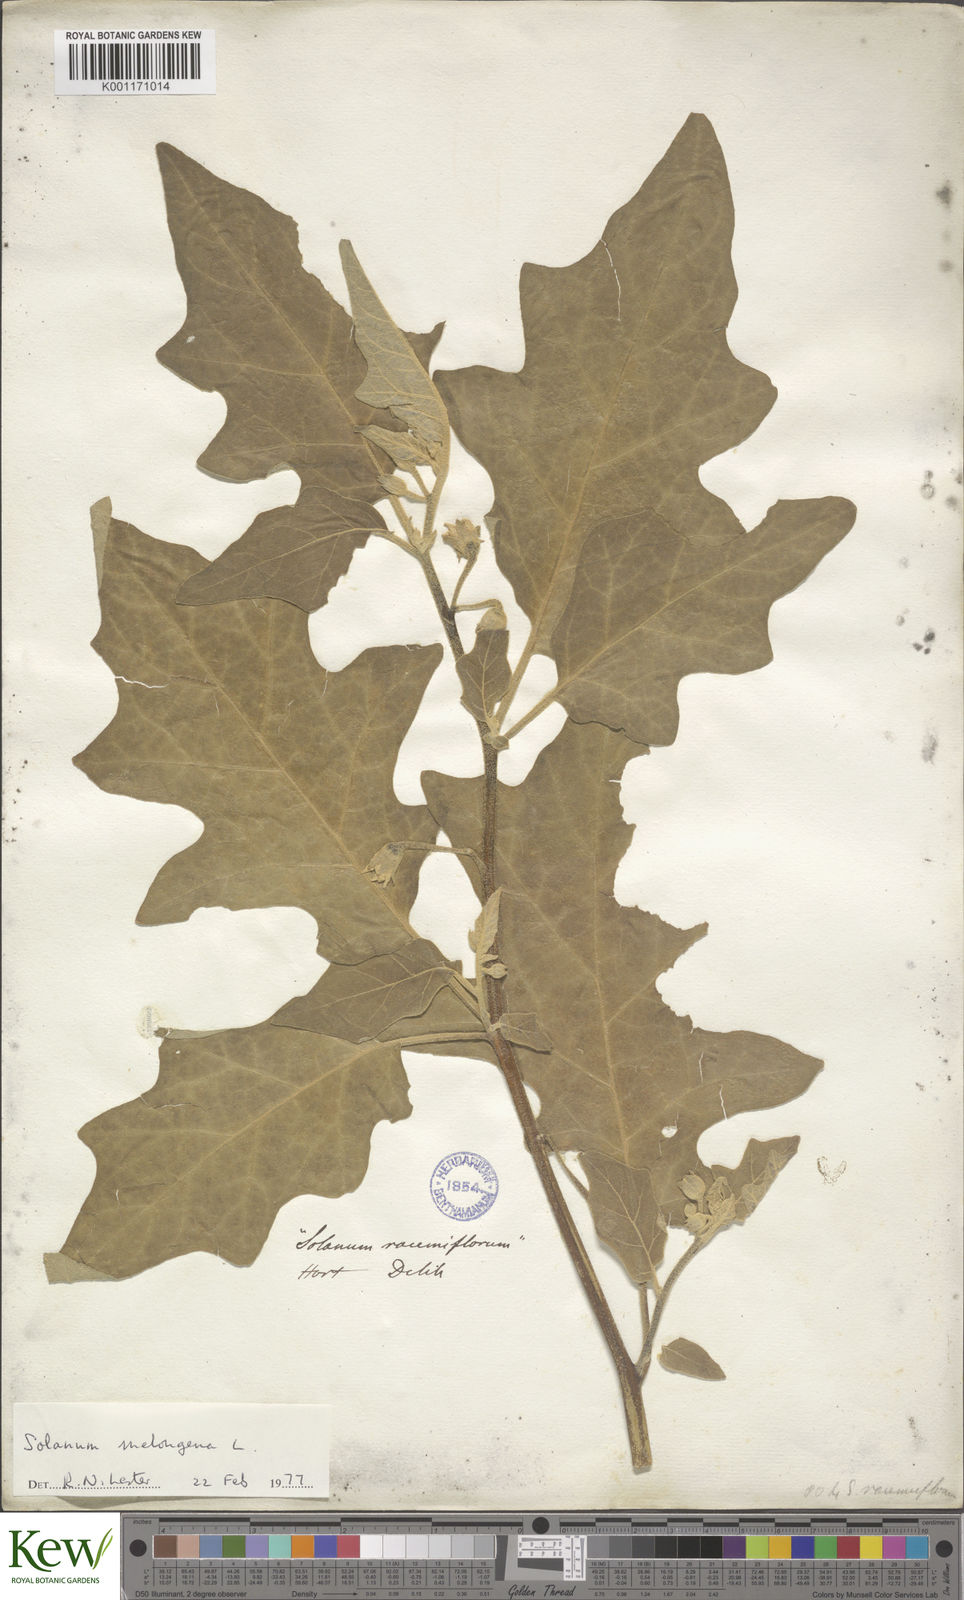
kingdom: Plantae
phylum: Tracheophyta
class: Magnoliopsida
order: Solanales
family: Solanaceae
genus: Solanum
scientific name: Solanum
